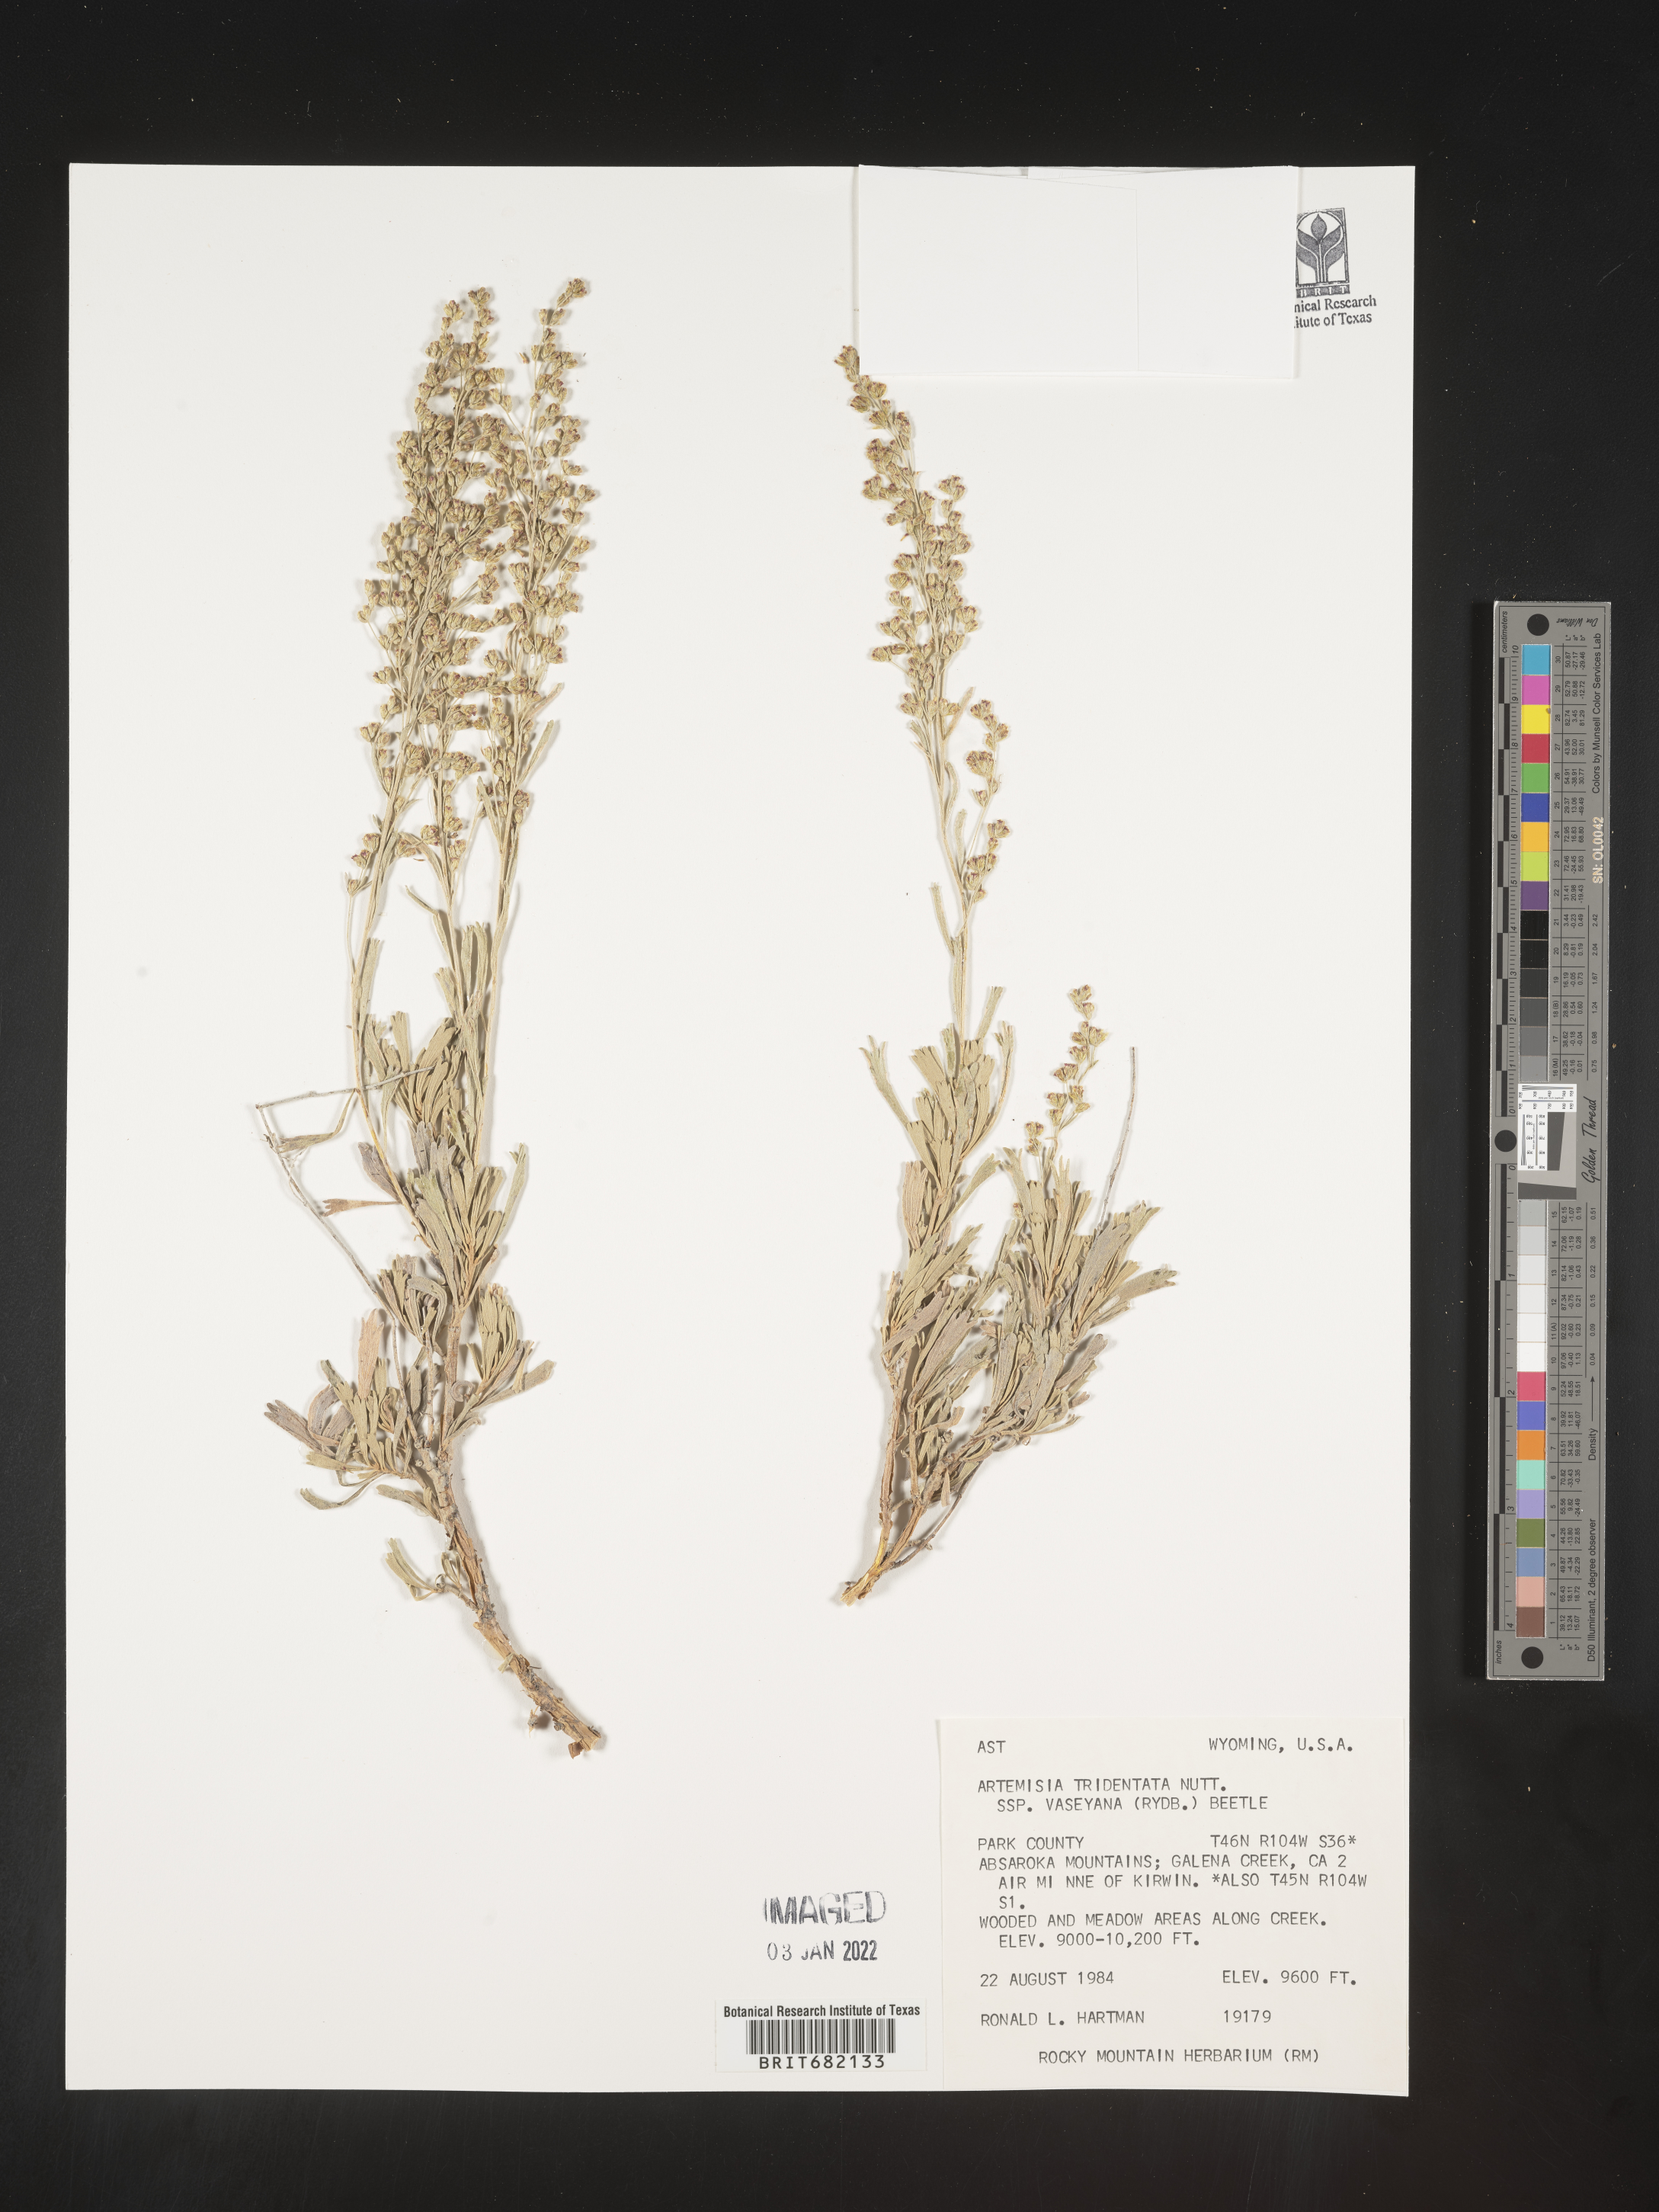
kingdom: Plantae
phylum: Tracheophyta
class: Magnoliopsida
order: Asterales
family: Asteraceae
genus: Artemisia
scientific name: Artemisia tridentata
